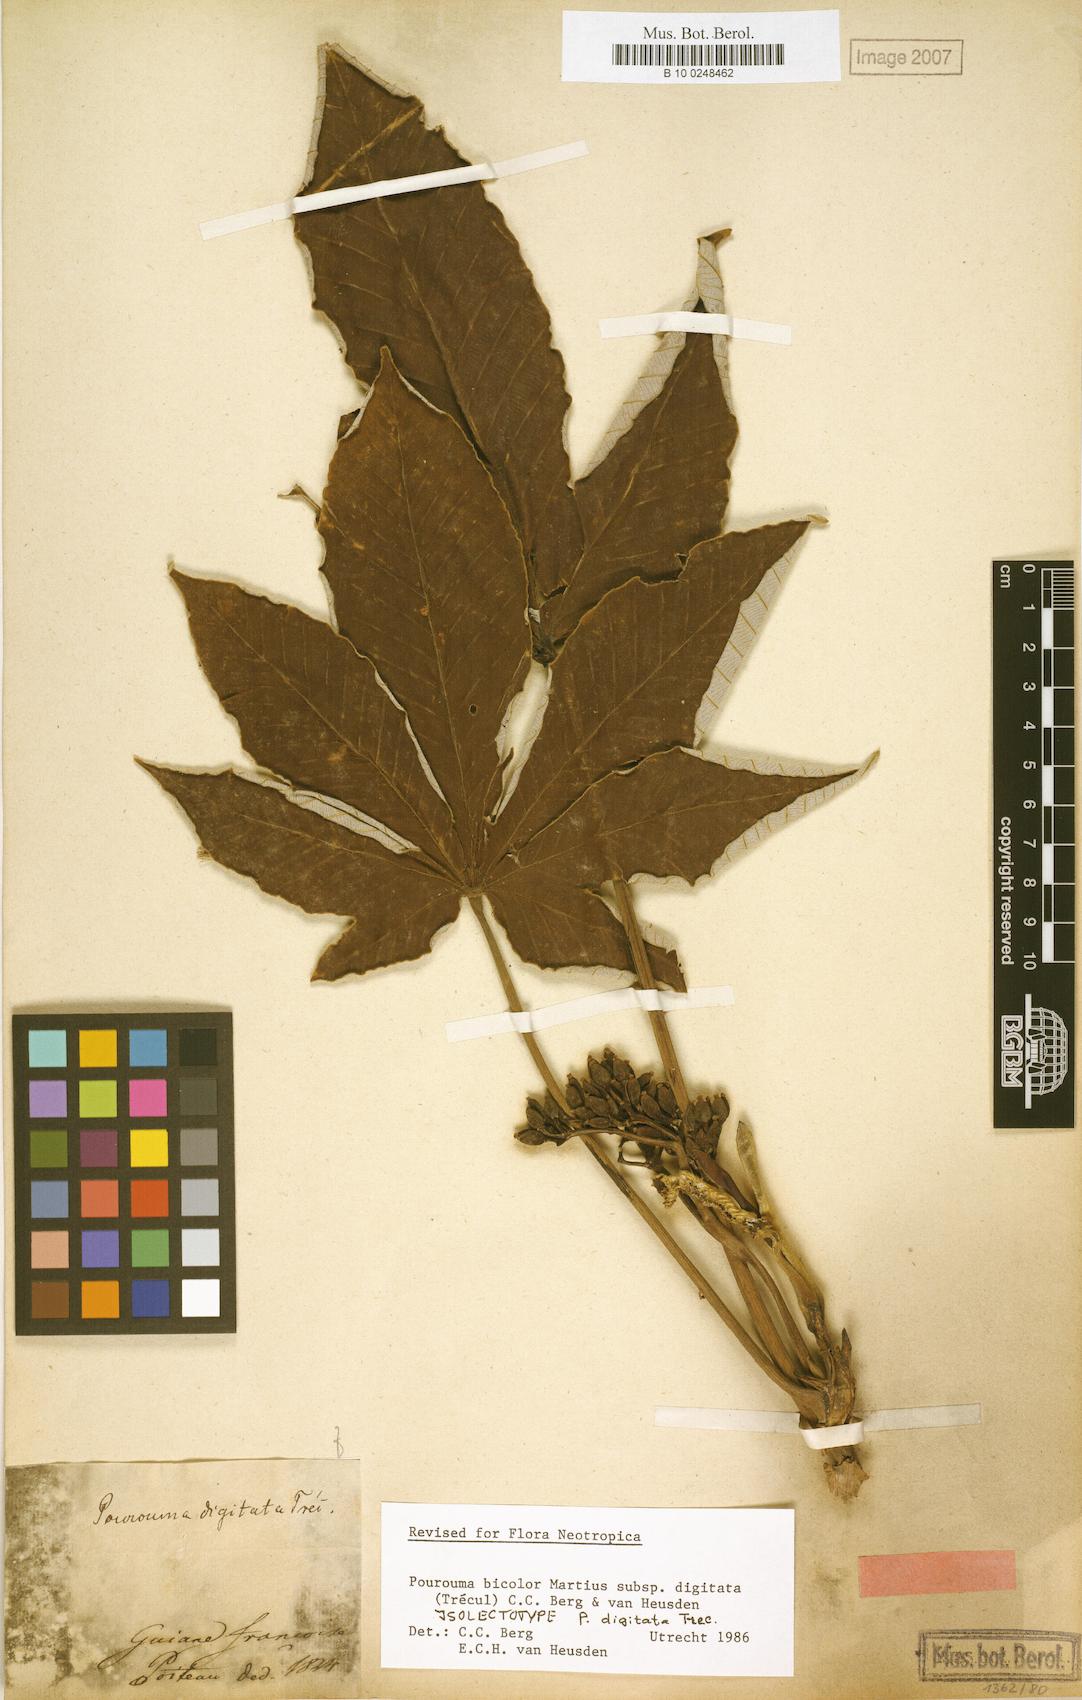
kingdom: Plantae
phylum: Tracheophyta
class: Magnoliopsida
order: Rosales
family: Urticaceae
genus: Pourouma
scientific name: Pourouma bicolor
